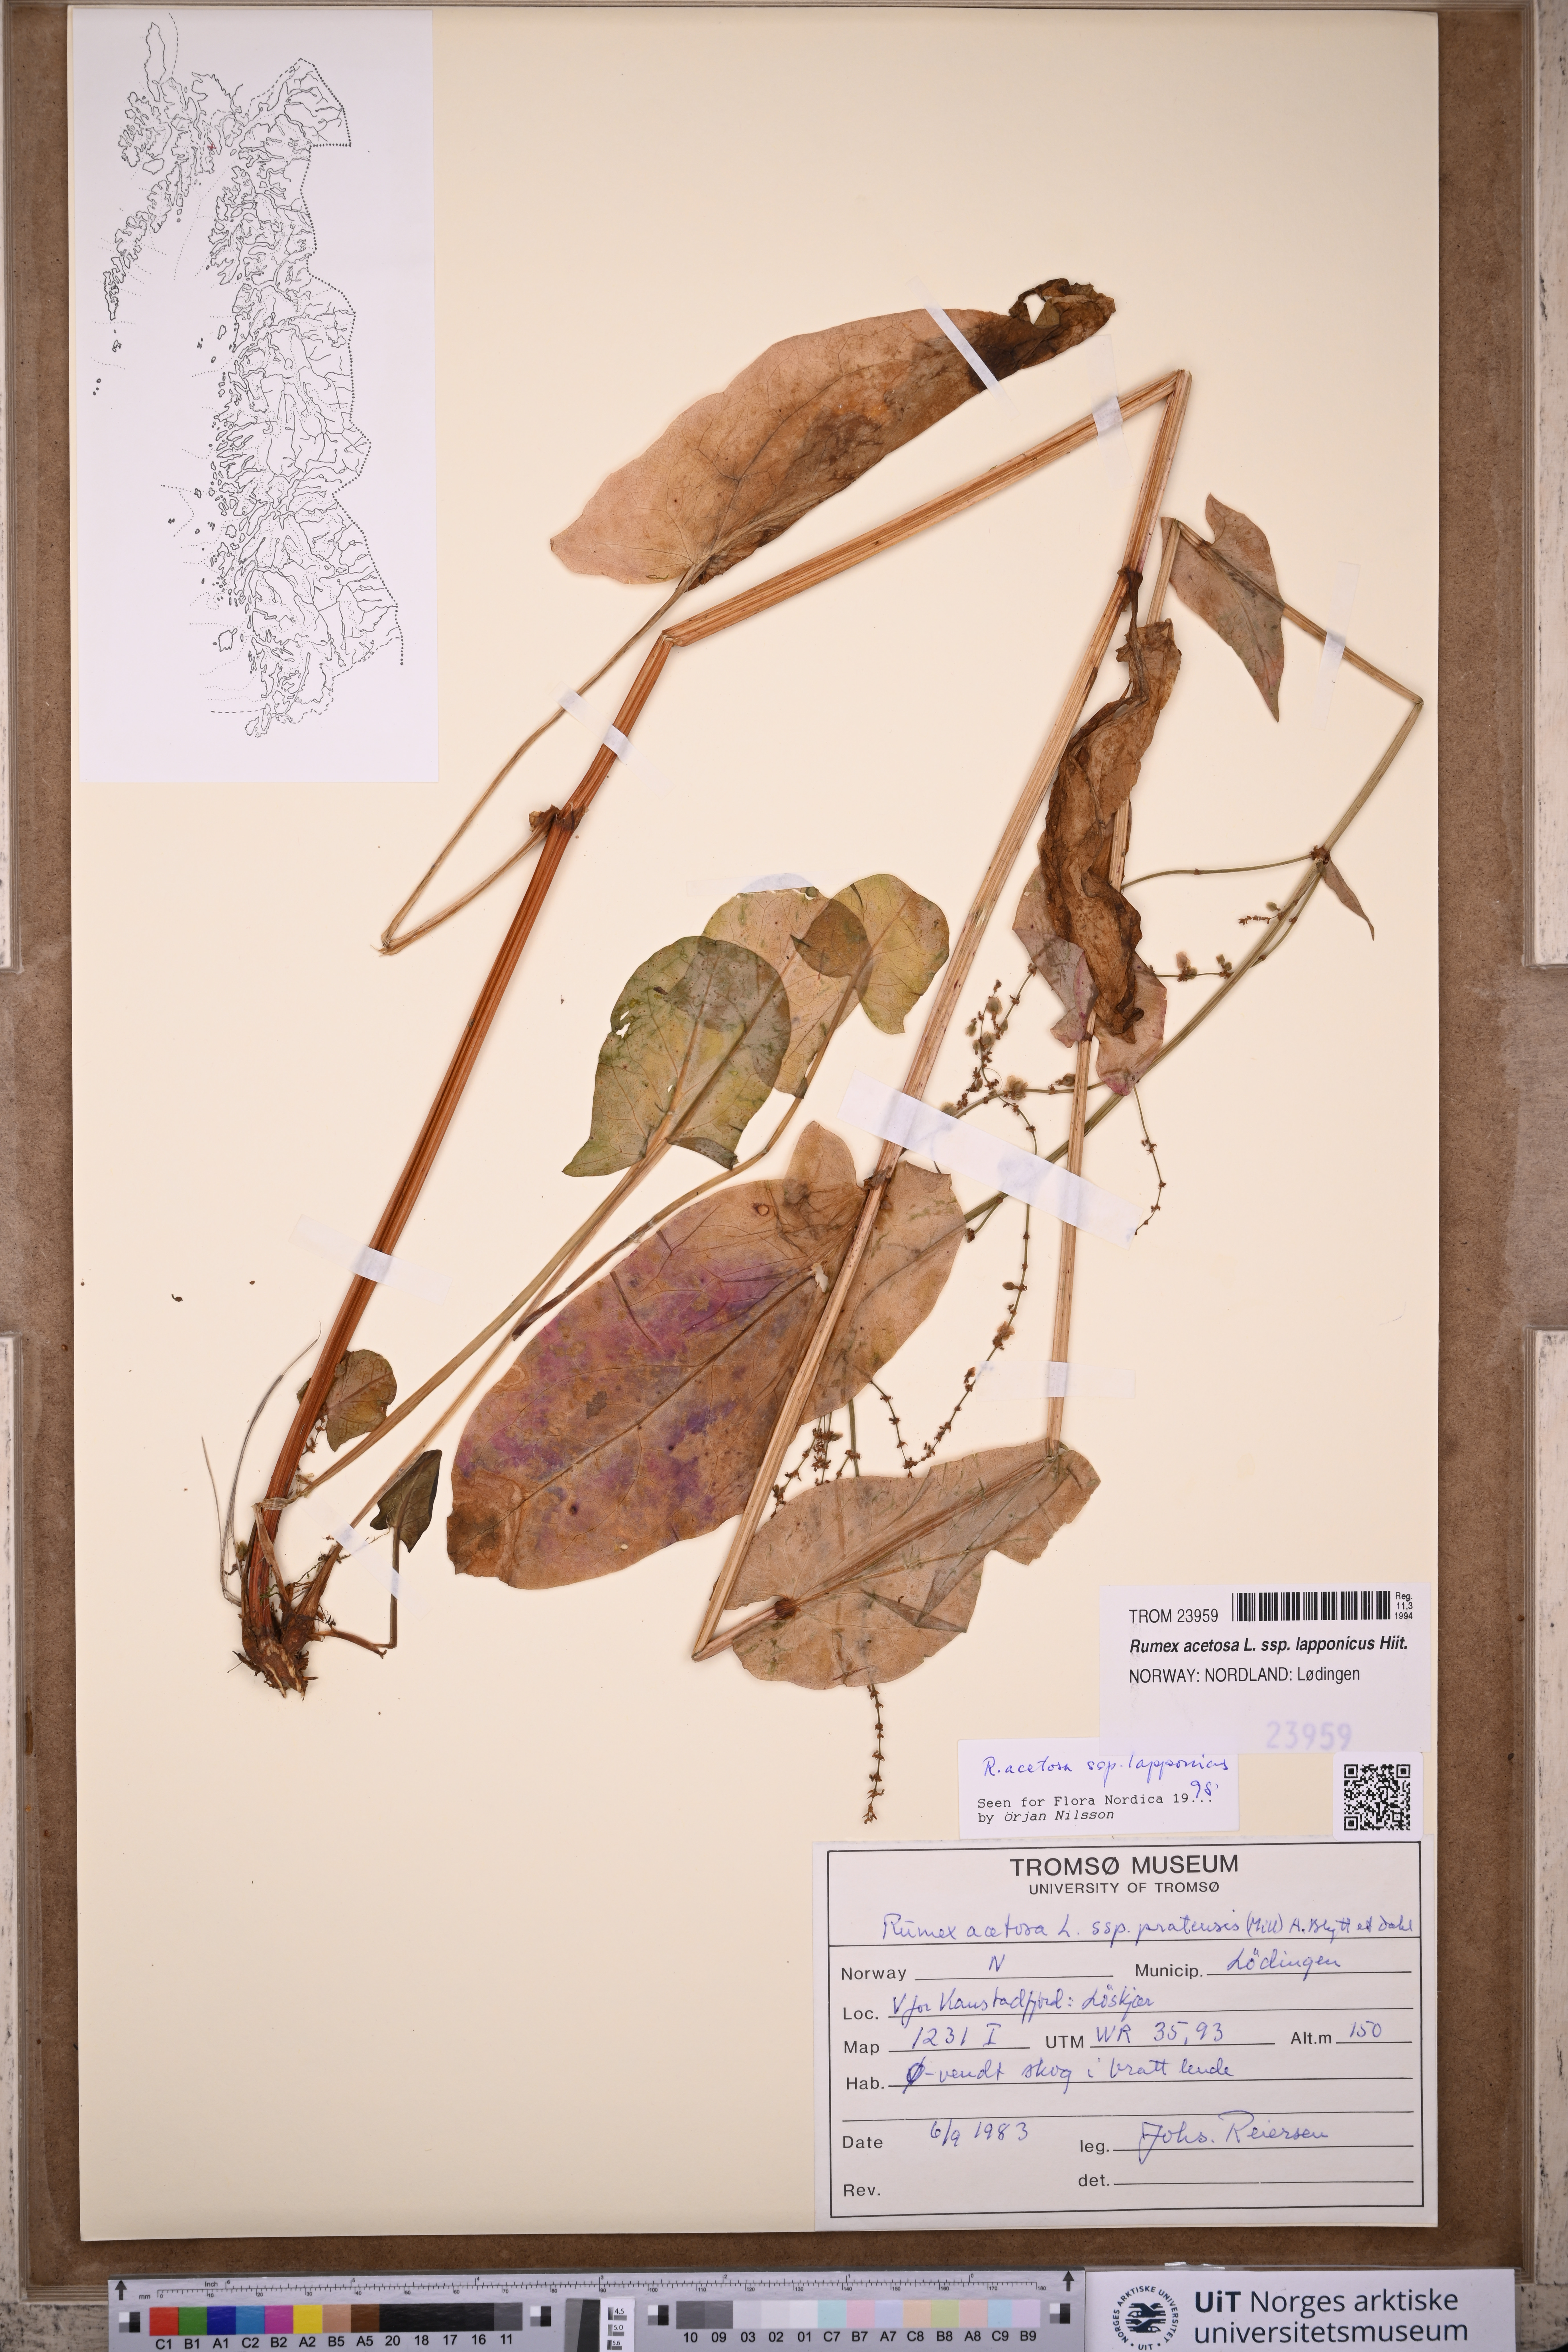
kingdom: Plantae
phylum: Tracheophyta
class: Magnoliopsida
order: Caryophyllales
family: Polygonaceae
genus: Rumex
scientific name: Rumex lapponicus
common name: Lapland mountain sorrel
